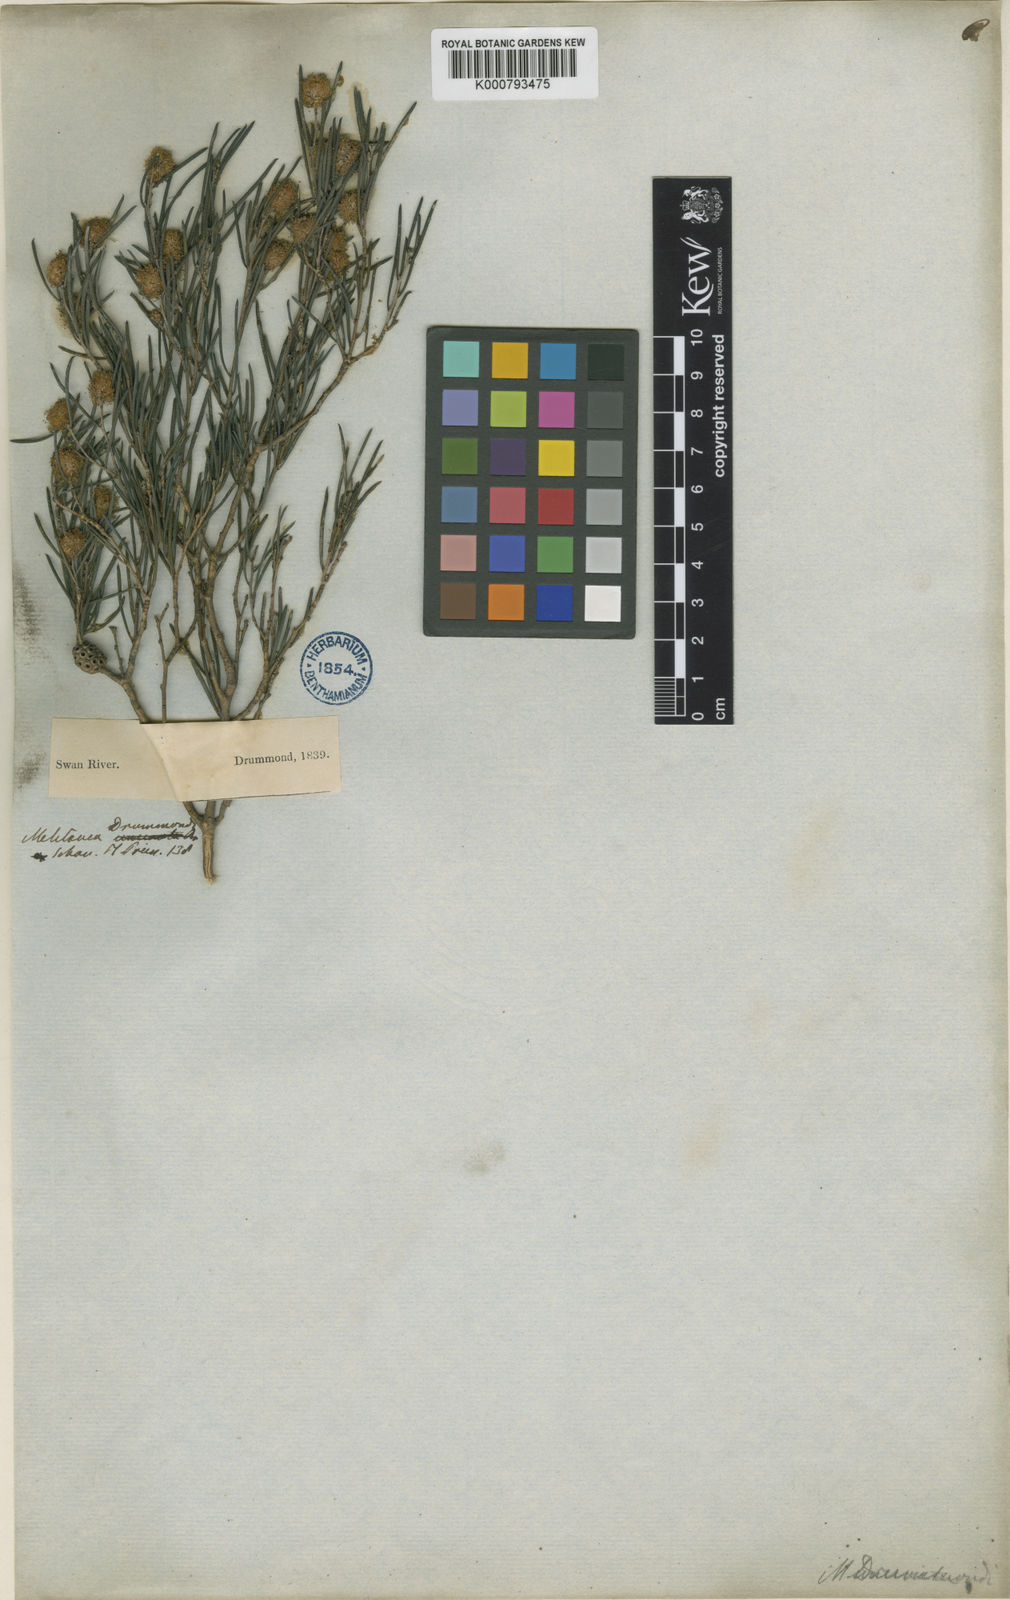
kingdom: Plantae
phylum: Tracheophyta
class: Magnoliopsida
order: Myrtales
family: Myrtaceae
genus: Melaleuca
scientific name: Melaleuca uncinata
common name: Broom honey myrtle
